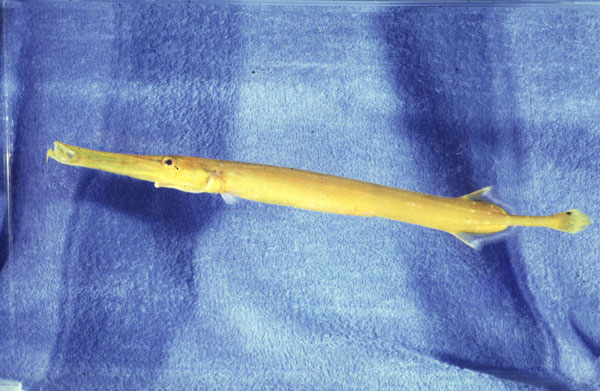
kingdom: Animalia
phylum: Chordata
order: Syngnathiformes
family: Aulostomidae
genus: Aulostomus
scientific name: Aulostomus chinensis
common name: Chinese trumpetfish
